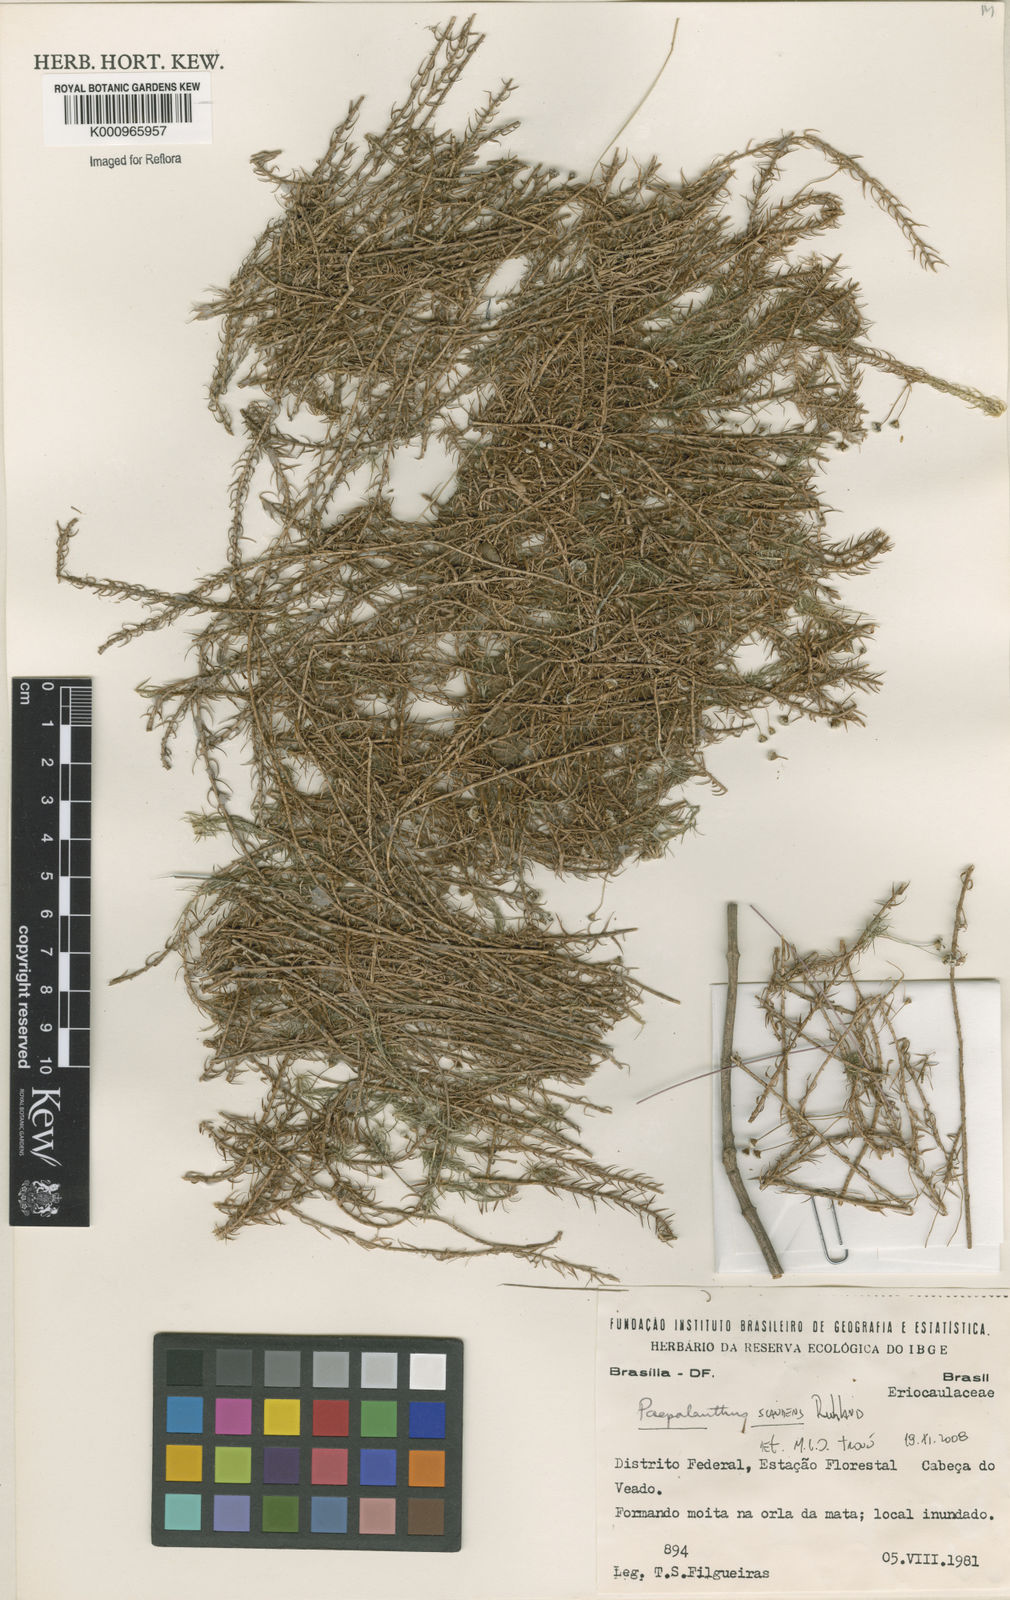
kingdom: Plantae
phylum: Tracheophyta
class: Liliopsida
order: Poales
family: Eriocaulaceae
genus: Paepalanthus
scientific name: Paepalanthus scandens
